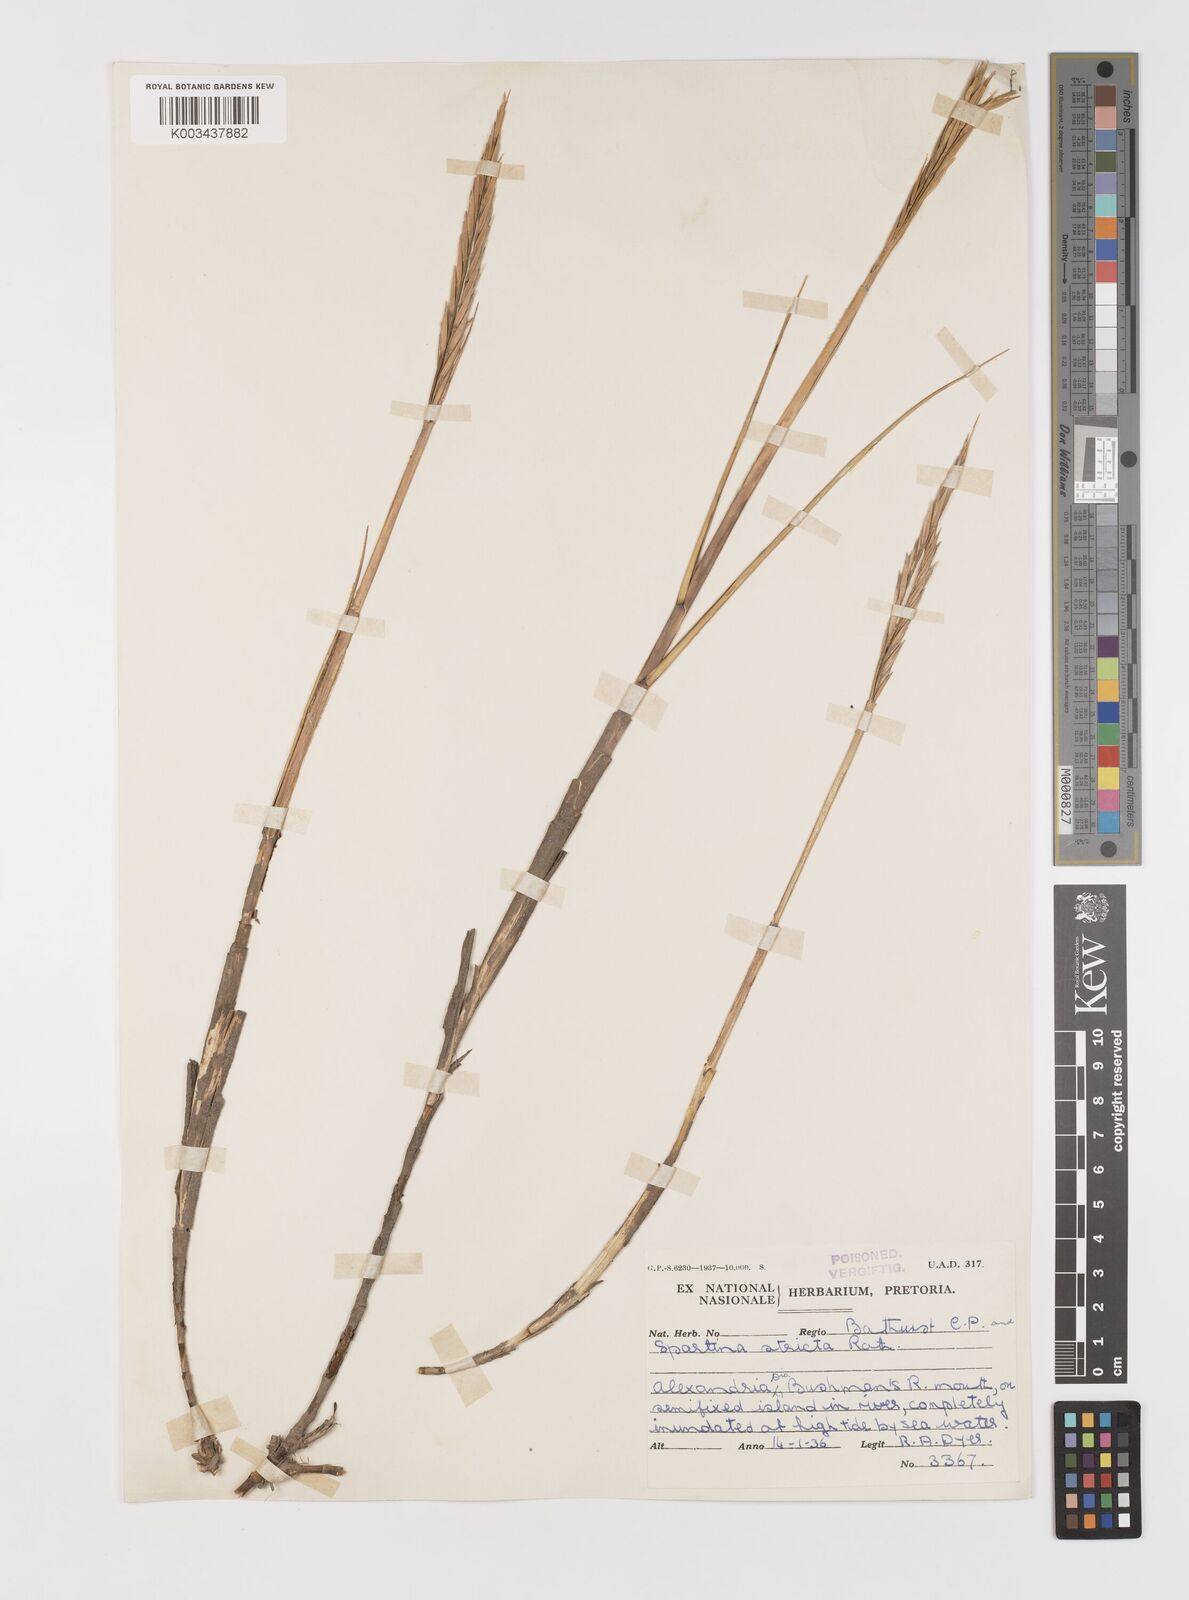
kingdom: Plantae
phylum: Tracheophyta
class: Liliopsida
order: Poales
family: Poaceae
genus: Sporobolus
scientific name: Sporobolus maritimus
